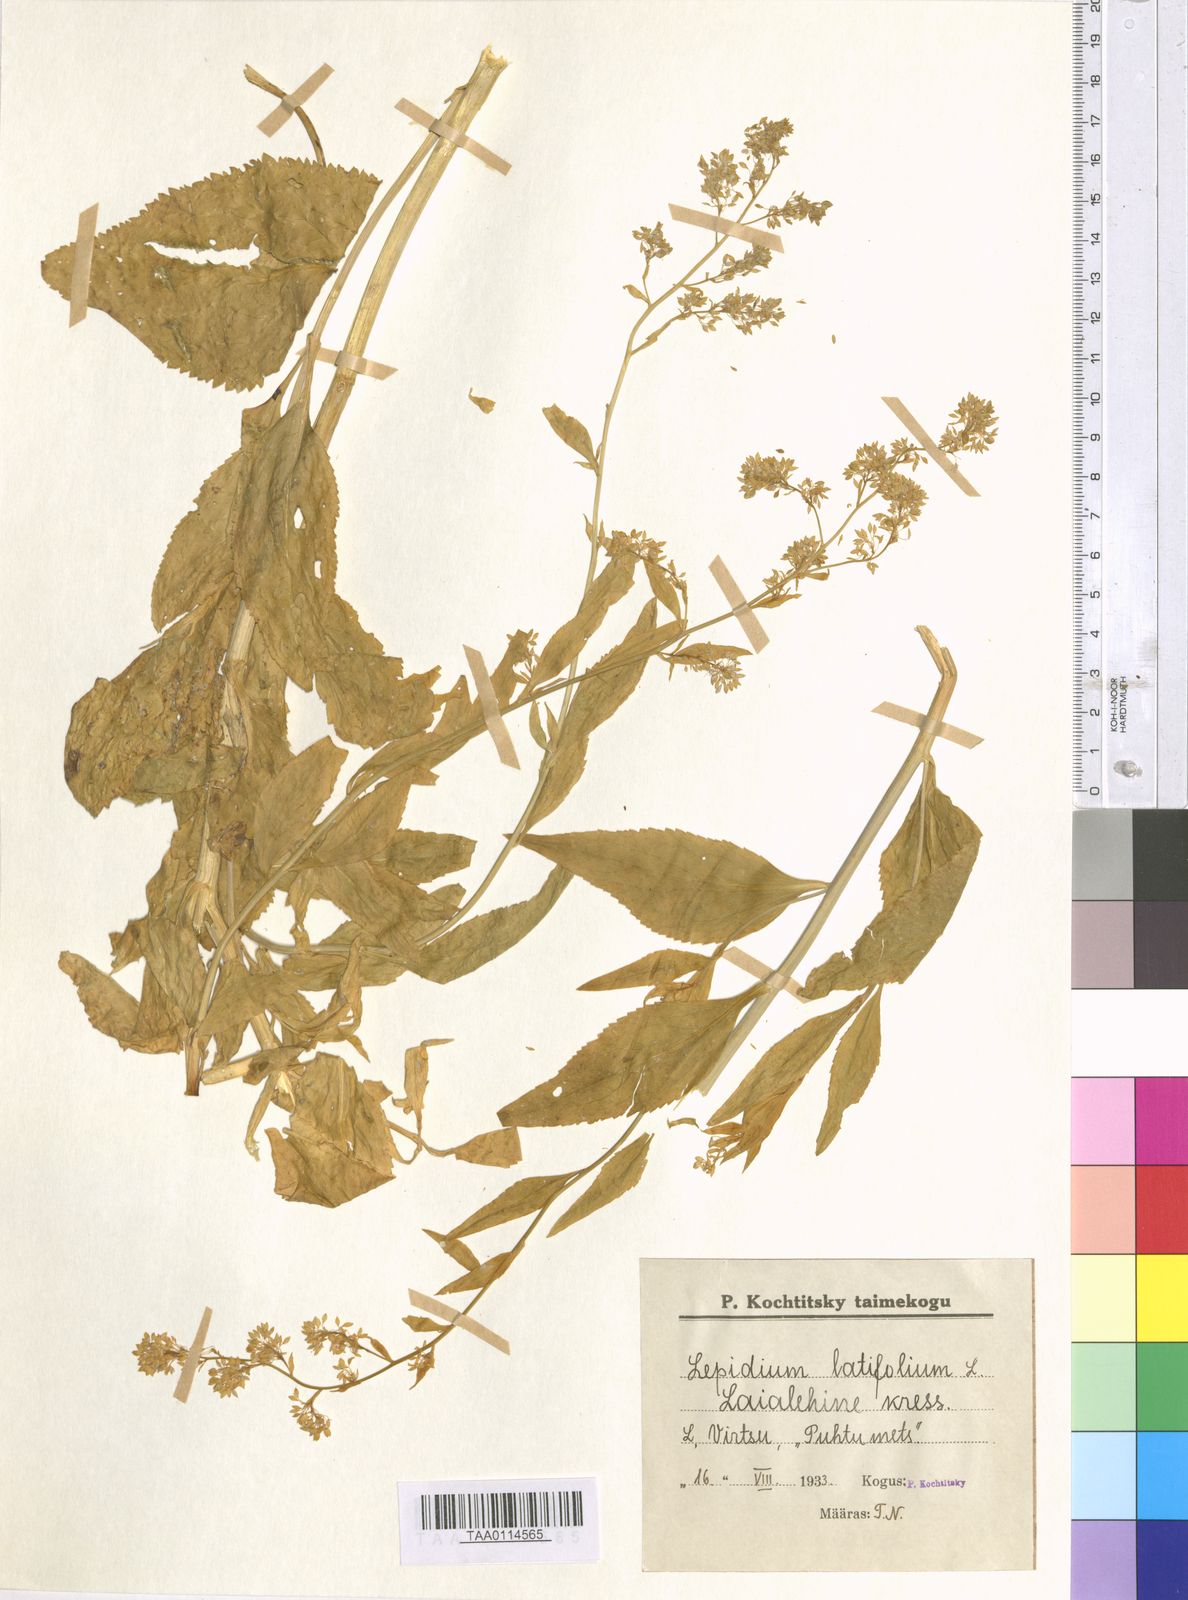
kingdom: Plantae
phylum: Tracheophyta
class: Magnoliopsida
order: Brassicales
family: Brassicaceae
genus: Lepidium
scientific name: Lepidium latifolium
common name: Dittander
